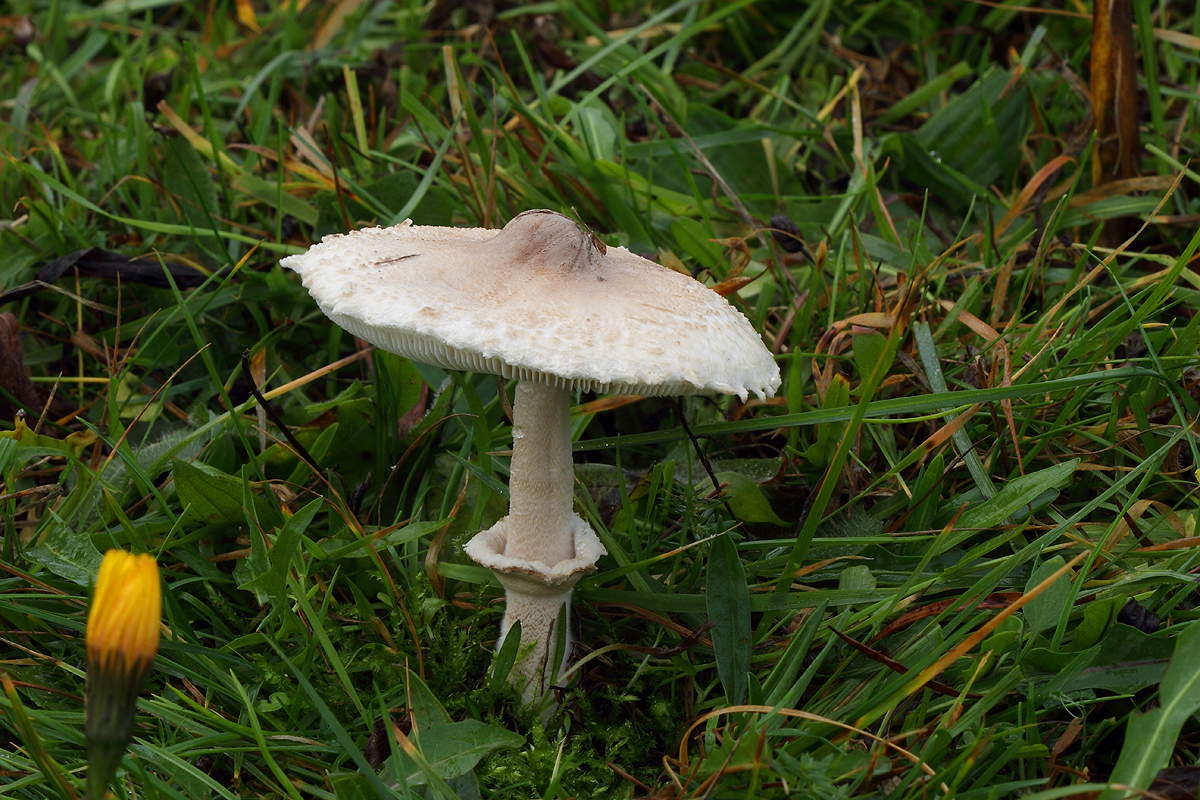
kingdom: Fungi
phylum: Basidiomycota
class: Agaricomycetes
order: Agaricales
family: Agaricaceae
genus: Macrolepiota
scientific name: Macrolepiota excoriata
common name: mark-kæmpeparasolhat
